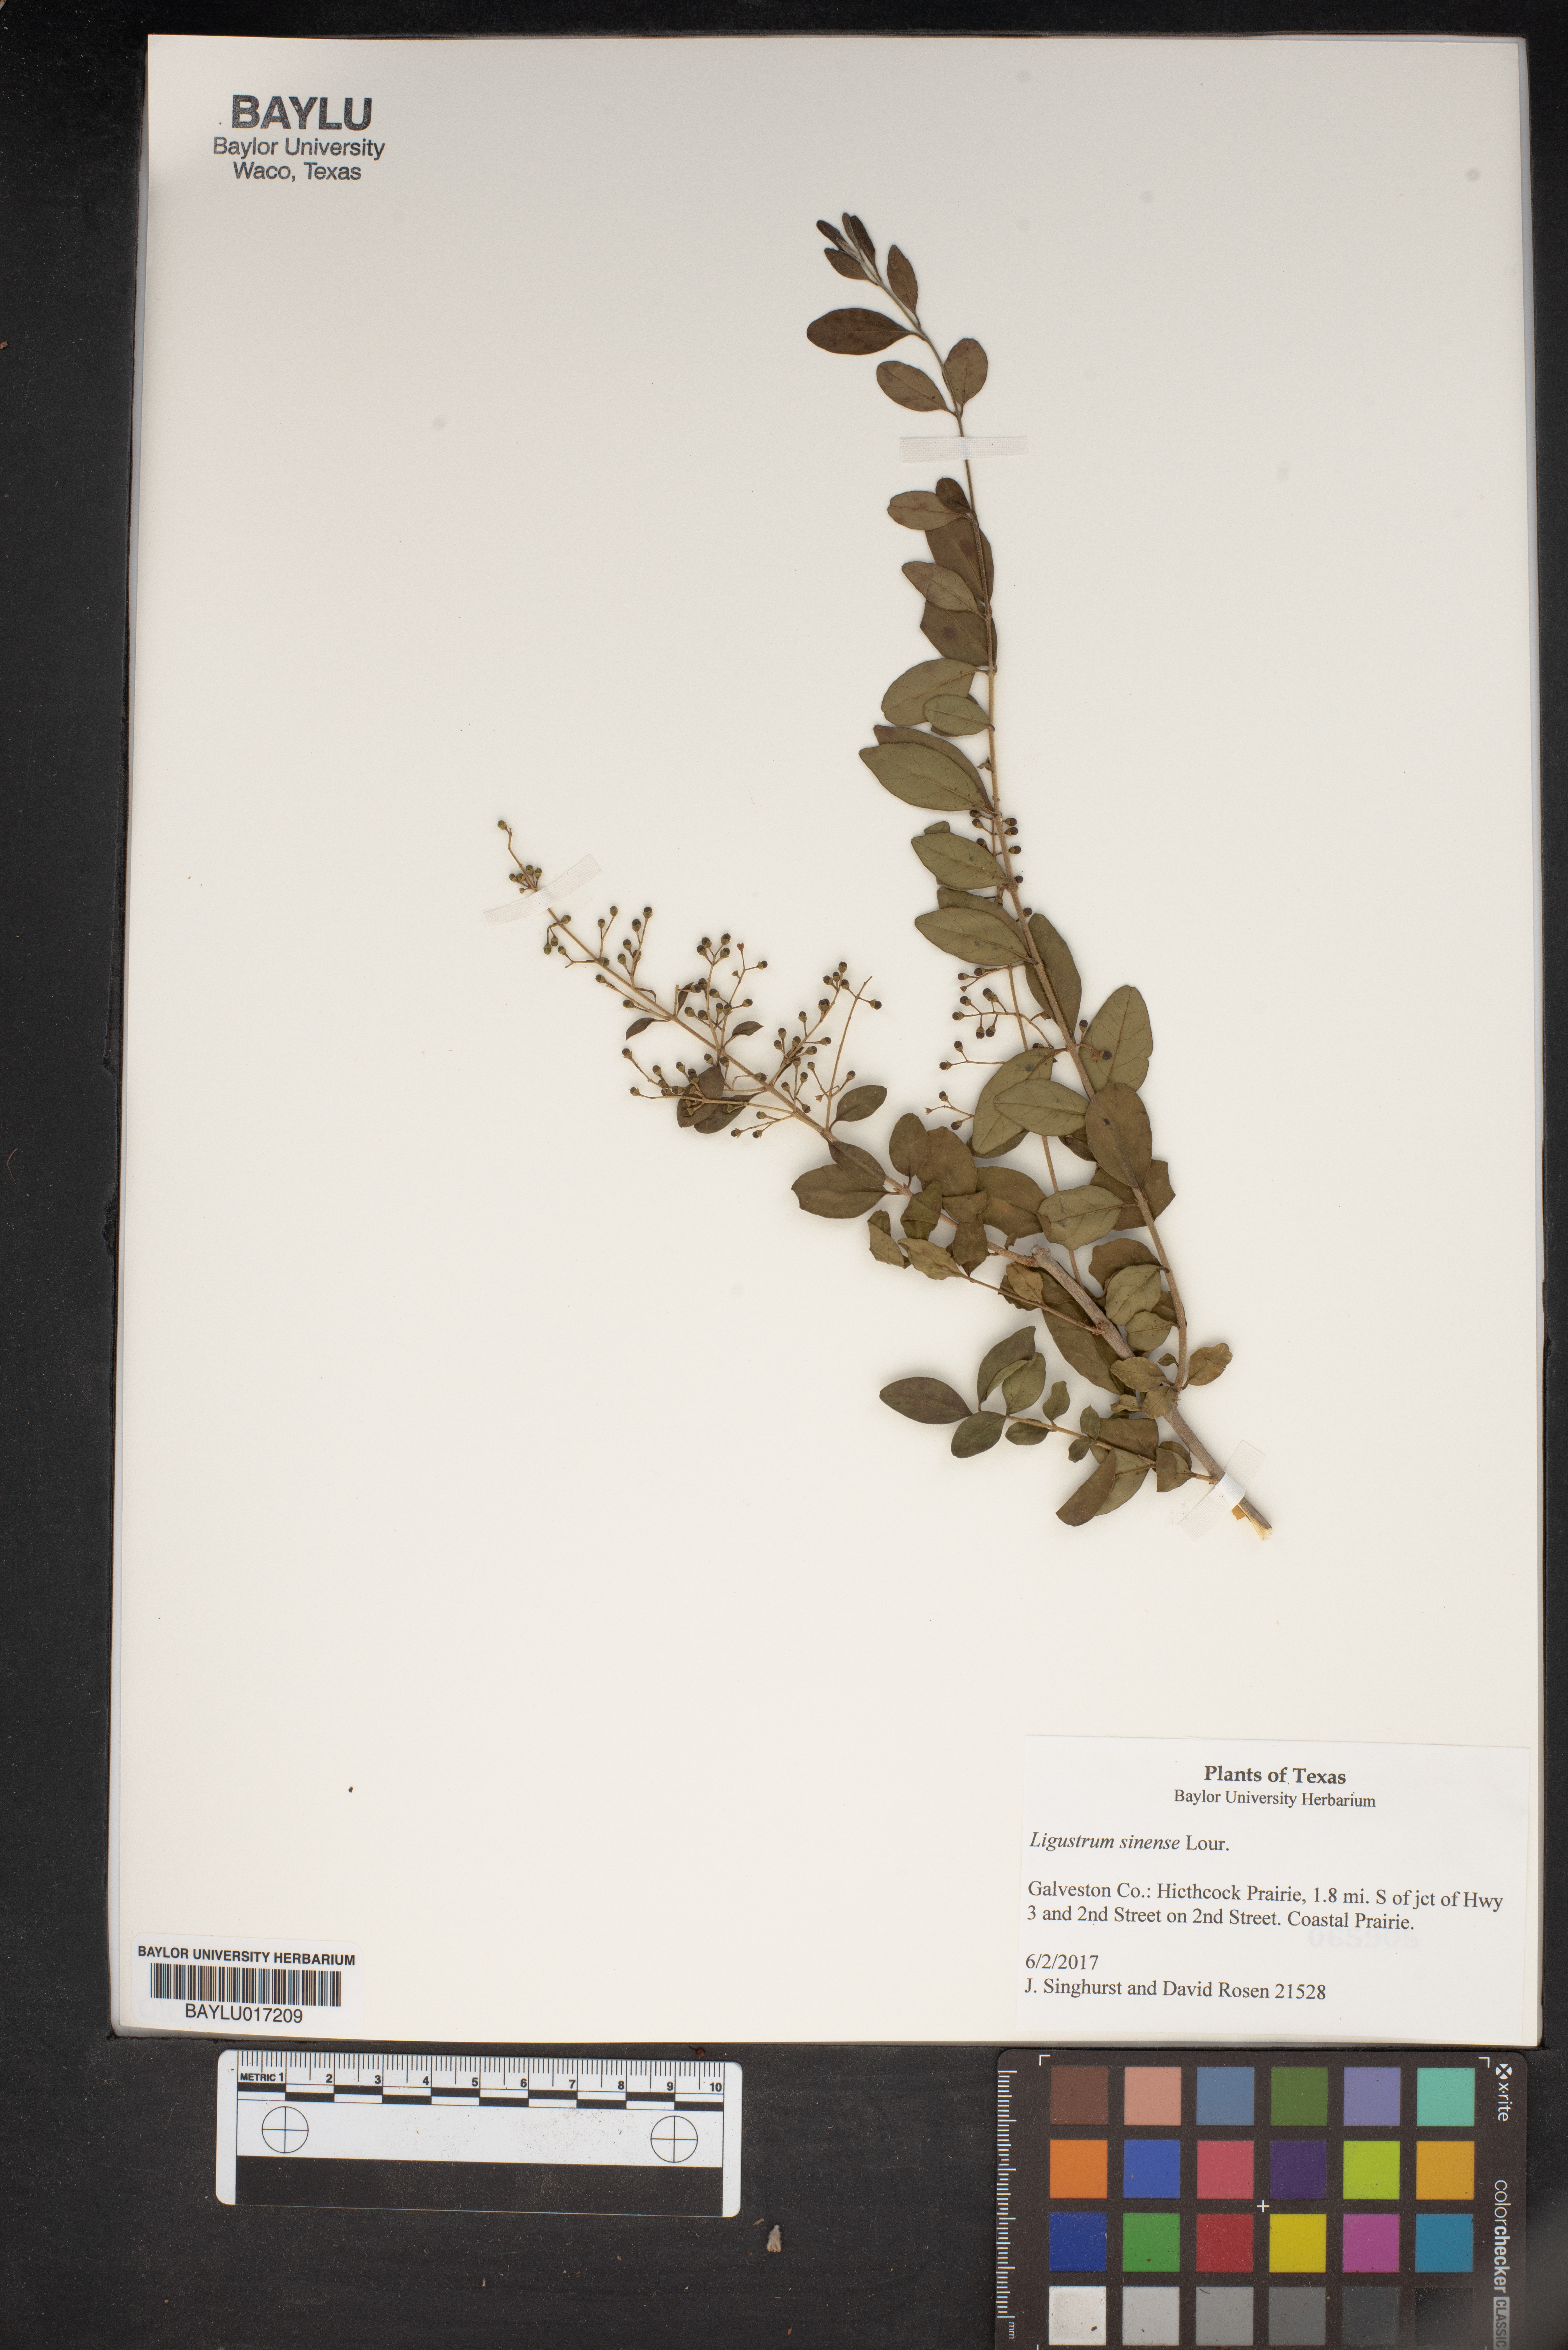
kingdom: Plantae
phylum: Tracheophyta
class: Magnoliopsida
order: Lamiales
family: Oleaceae
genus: Ligustrum
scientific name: Ligustrum sinense
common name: Chinese privet
